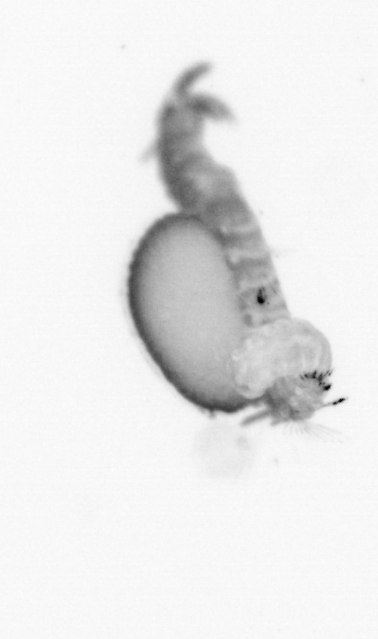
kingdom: Animalia
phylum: Annelida
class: Polychaeta
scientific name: Polychaeta
